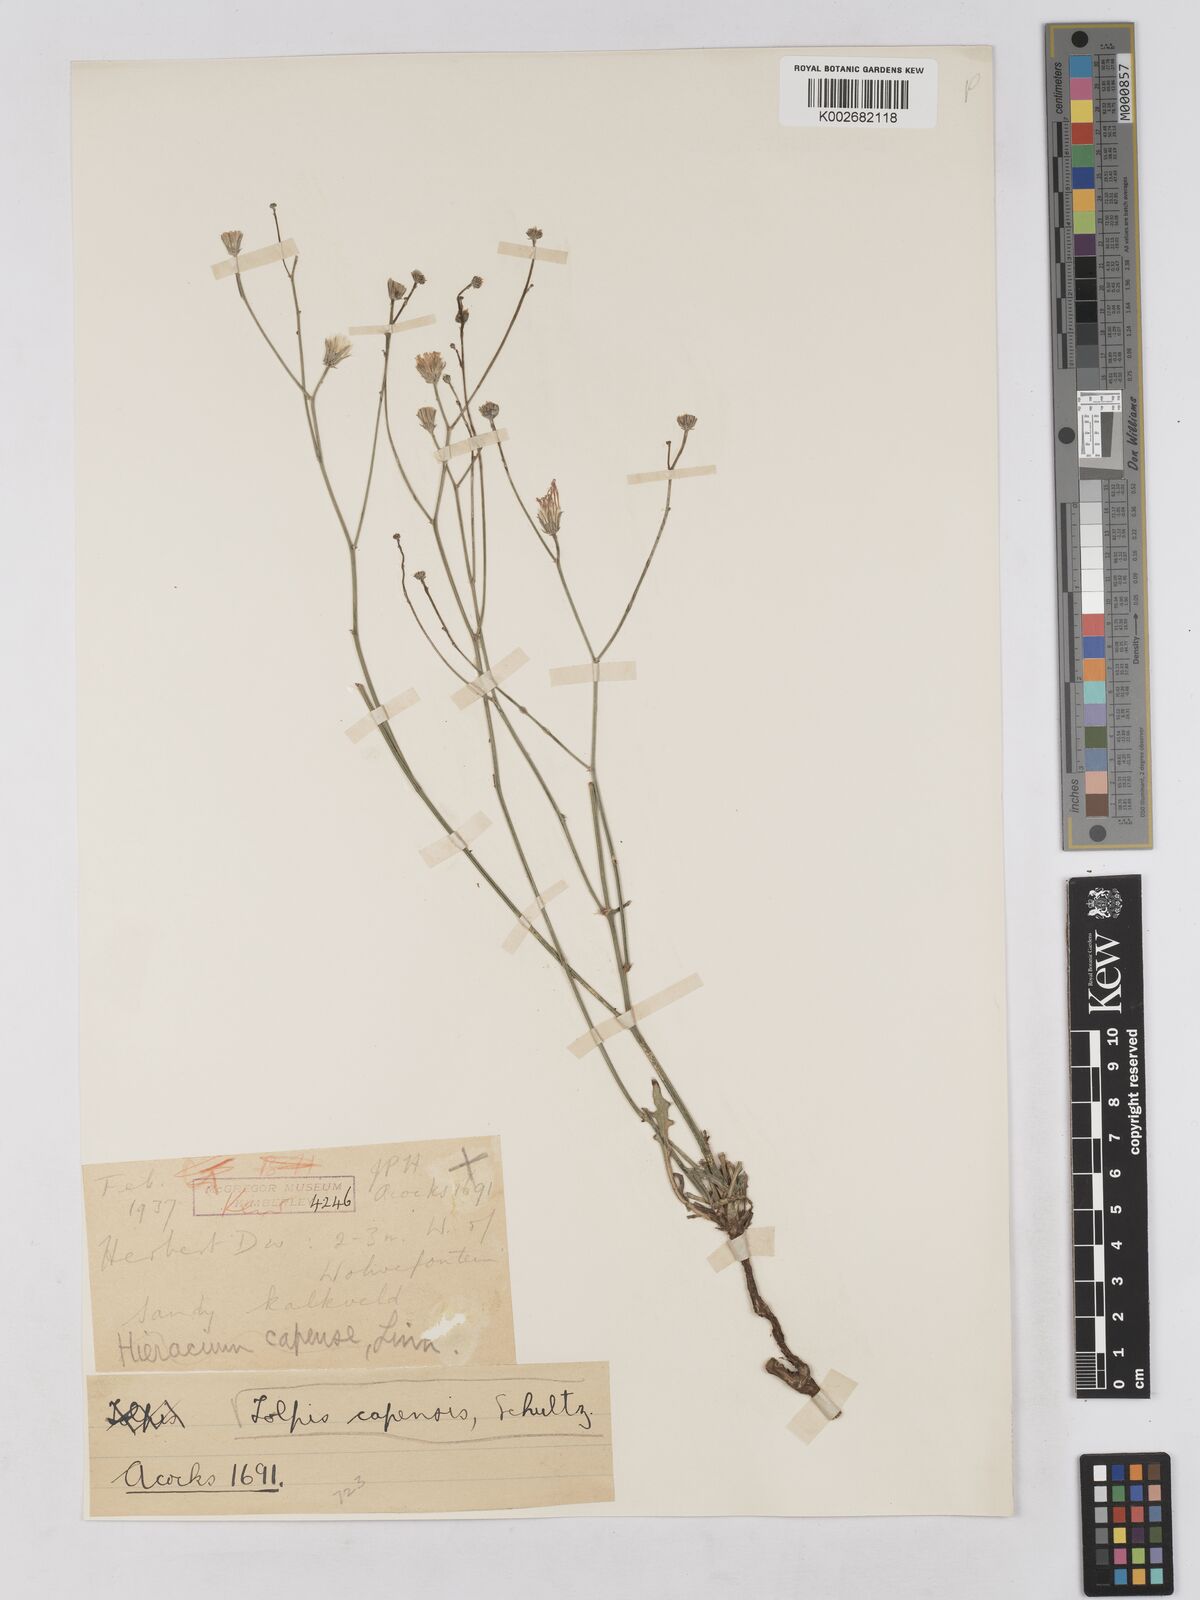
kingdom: Plantae
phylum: Tracheophyta
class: Magnoliopsida
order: Asterales
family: Asteraceae
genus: Tolpis
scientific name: Tolpis capensis
